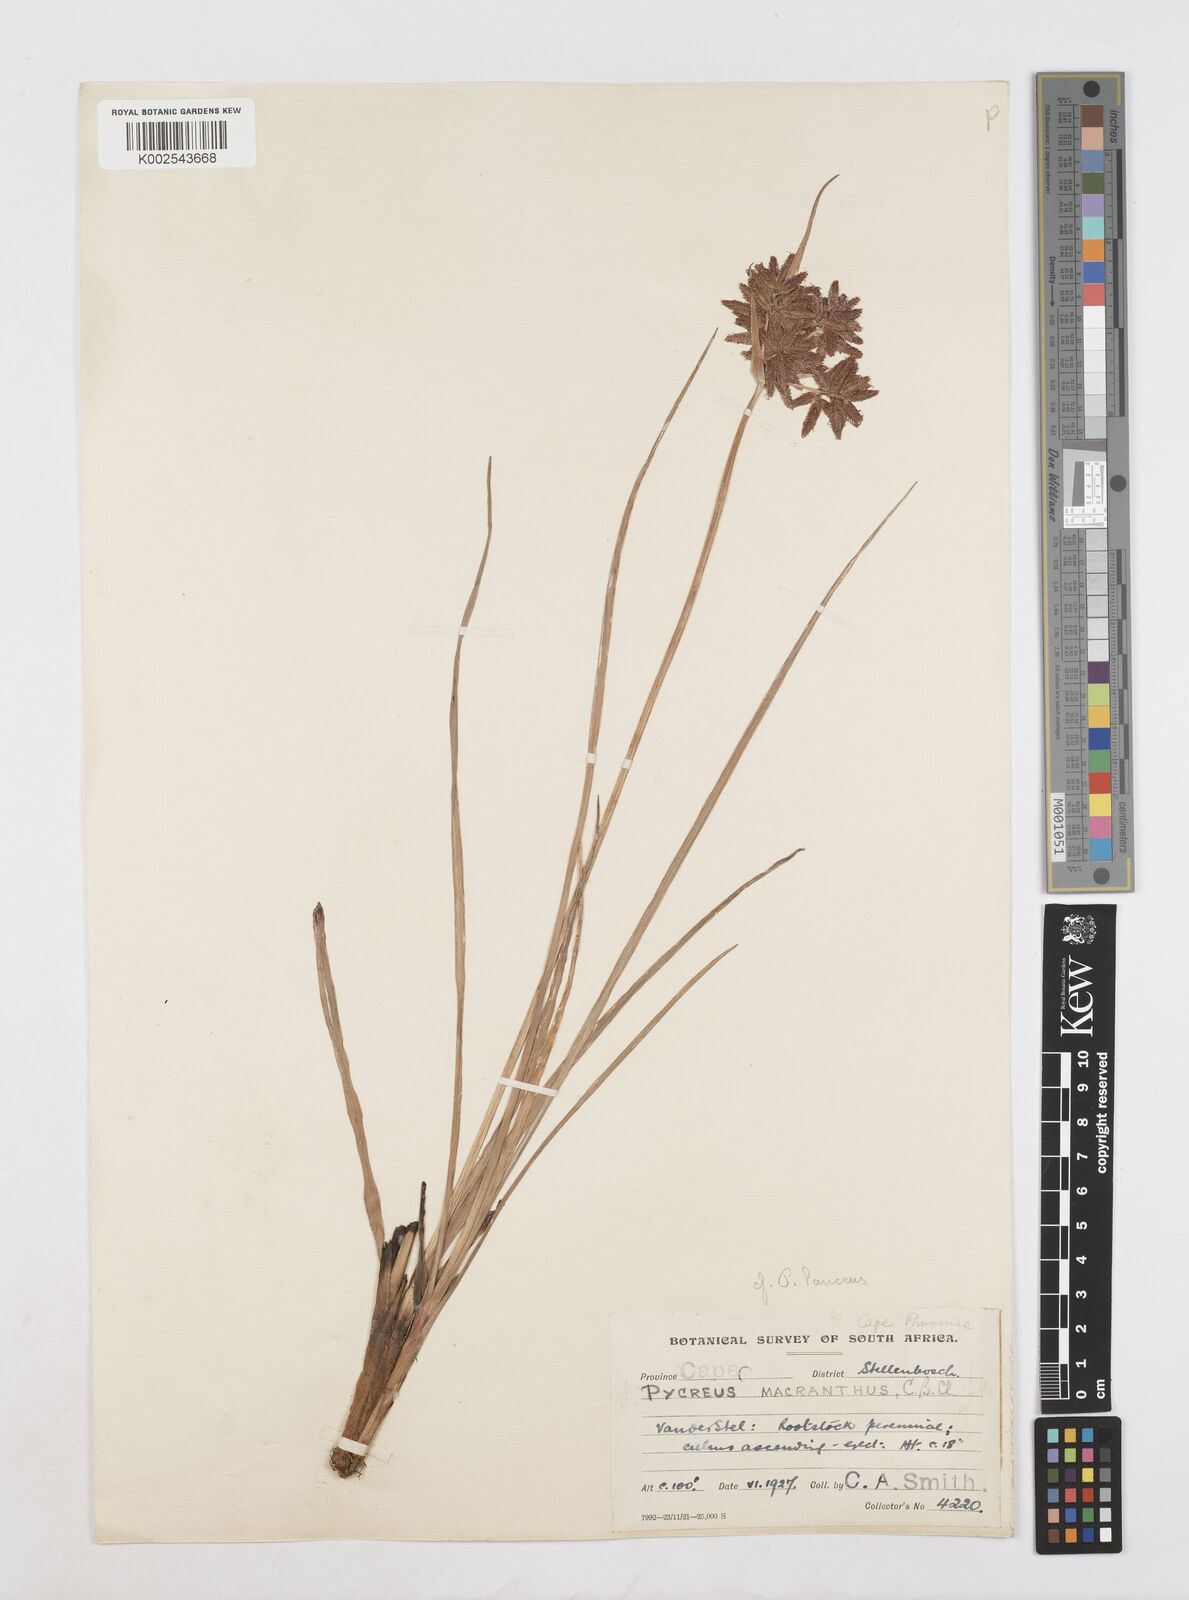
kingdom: Plantae
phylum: Tracheophyta
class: Liliopsida
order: Poales
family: Cyperaceae
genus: Cyperus
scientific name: Cyperus nitidus
